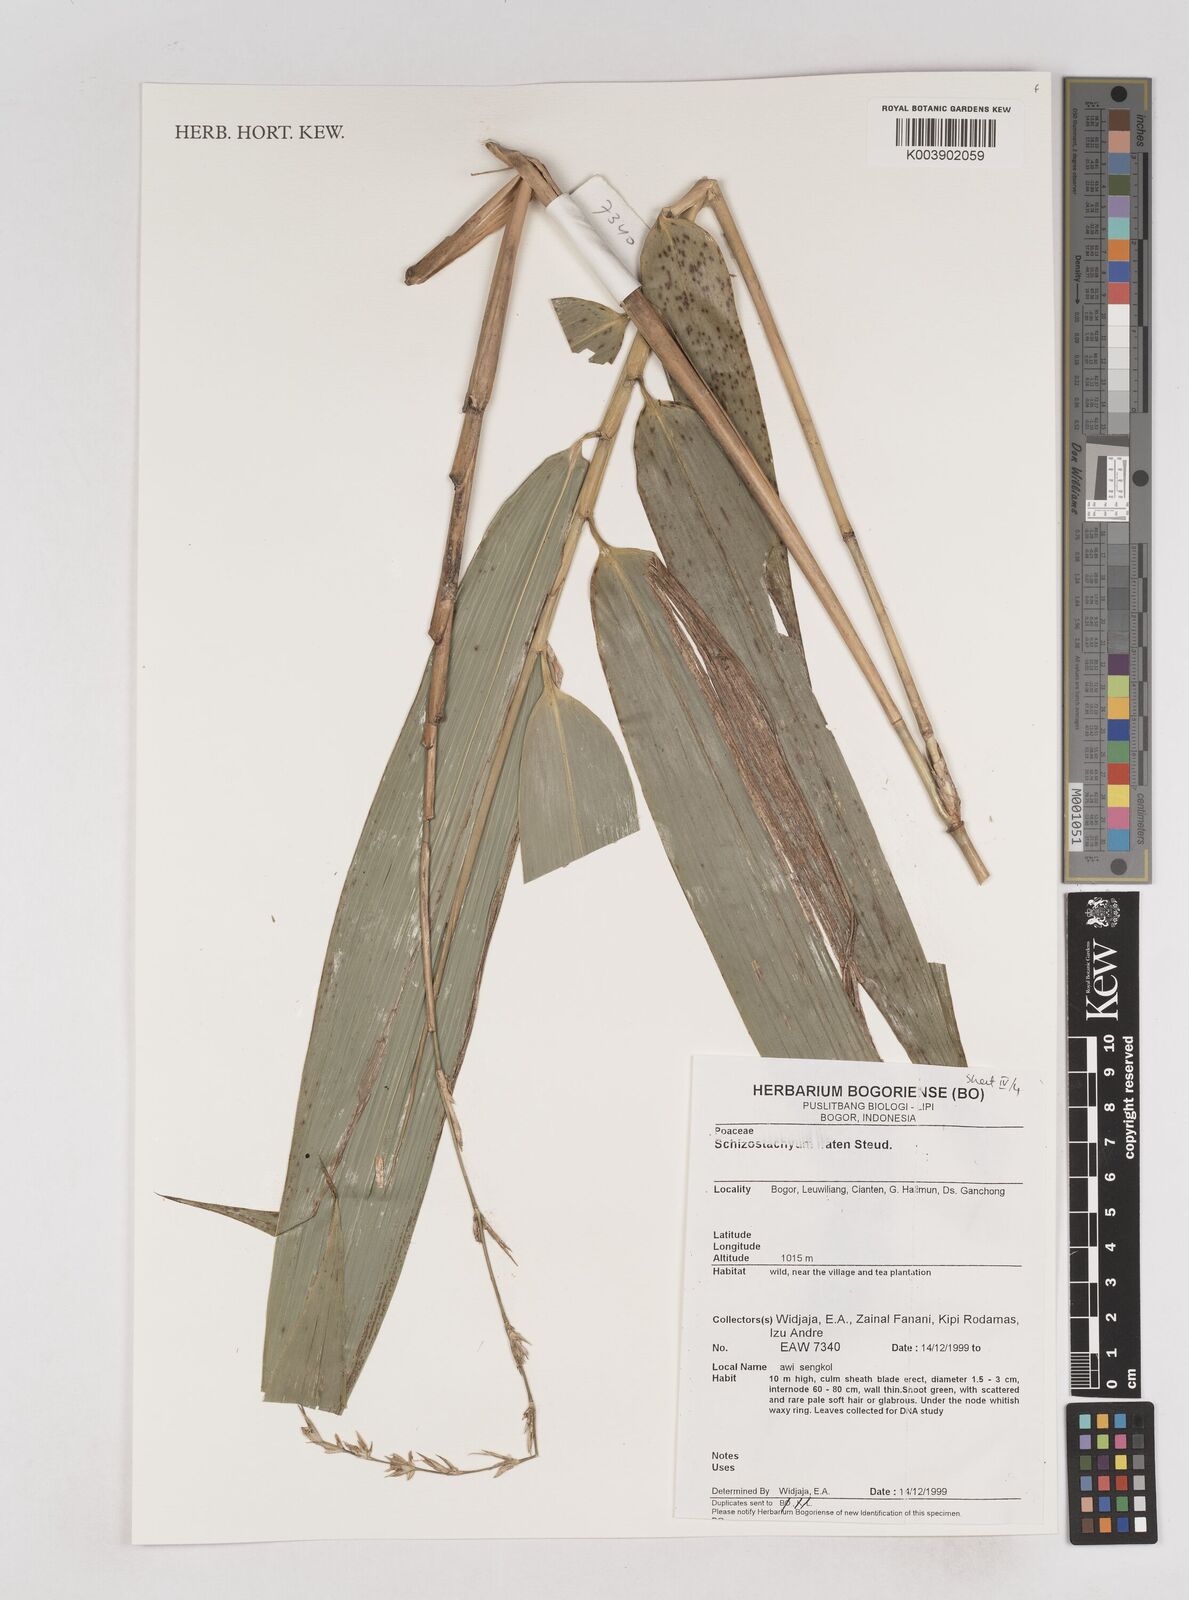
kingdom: Plantae
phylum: Tracheophyta
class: Liliopsida
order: Poales
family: Poaceae
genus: Schizostachyum
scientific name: Schizostachyum iraten
